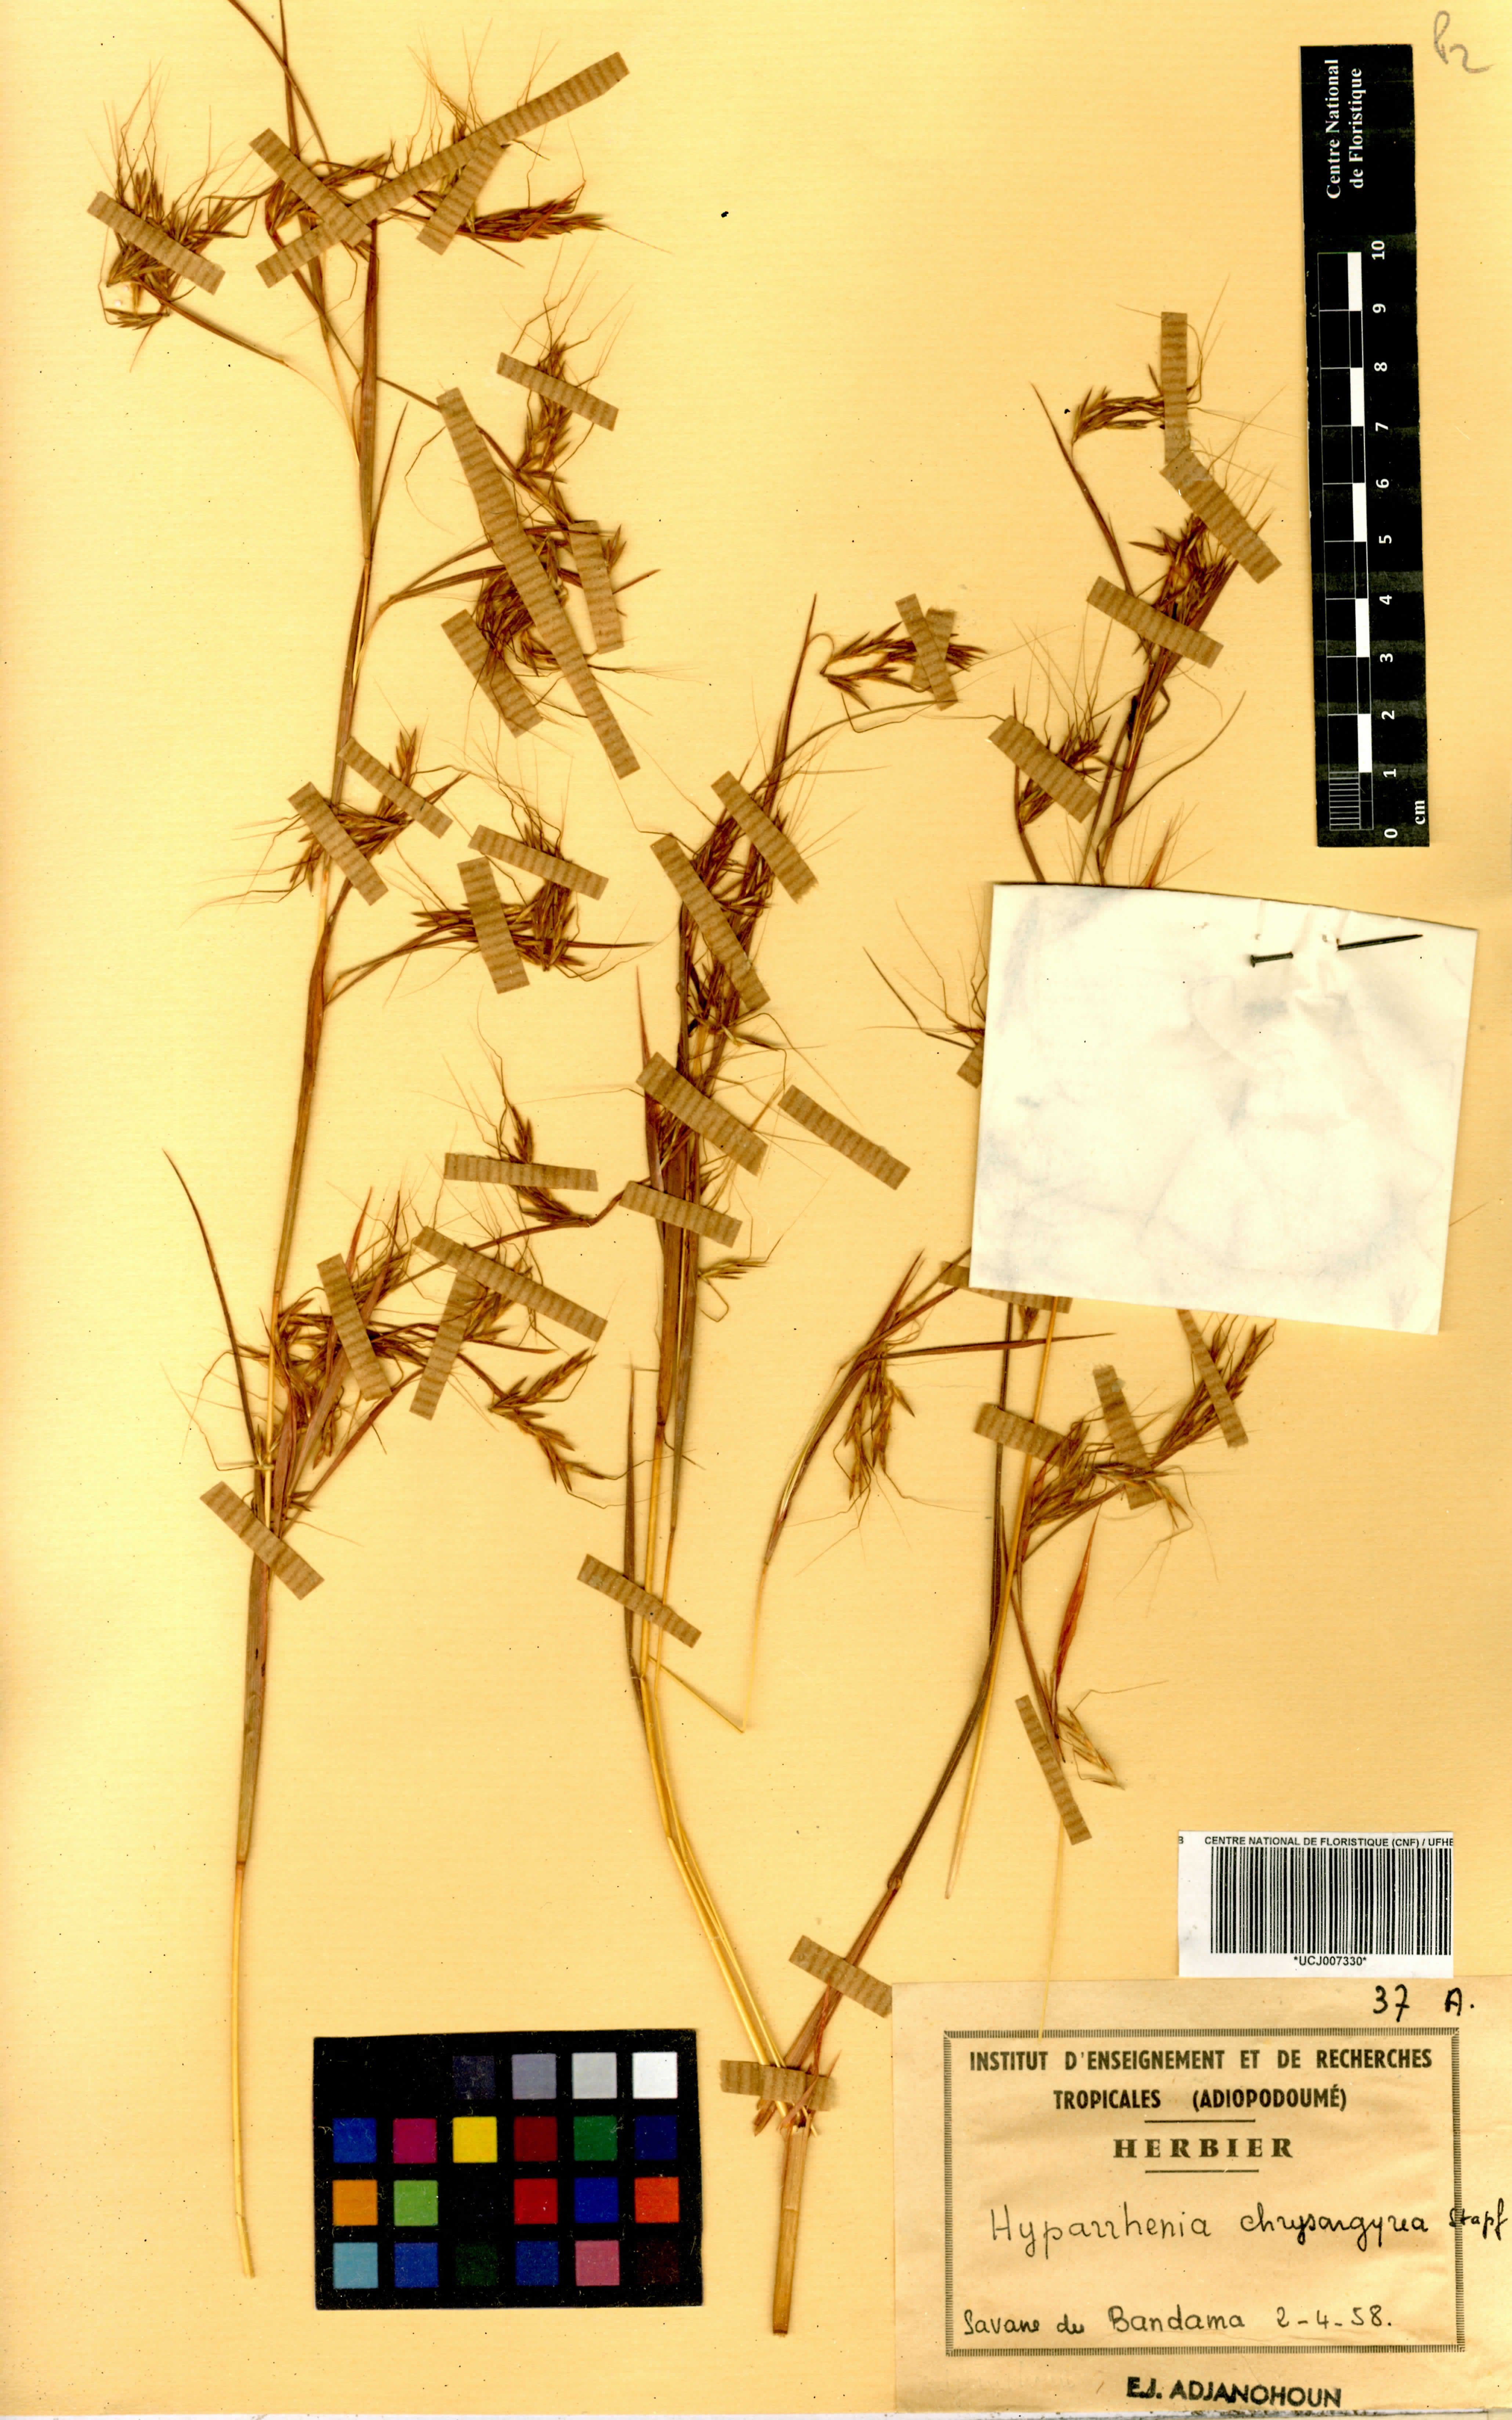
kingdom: Plantae
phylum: Tracheophyta
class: Liliopsida
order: Poales
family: Poaceae
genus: Hyparrhenia
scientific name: Hyparrhenia nyassae
